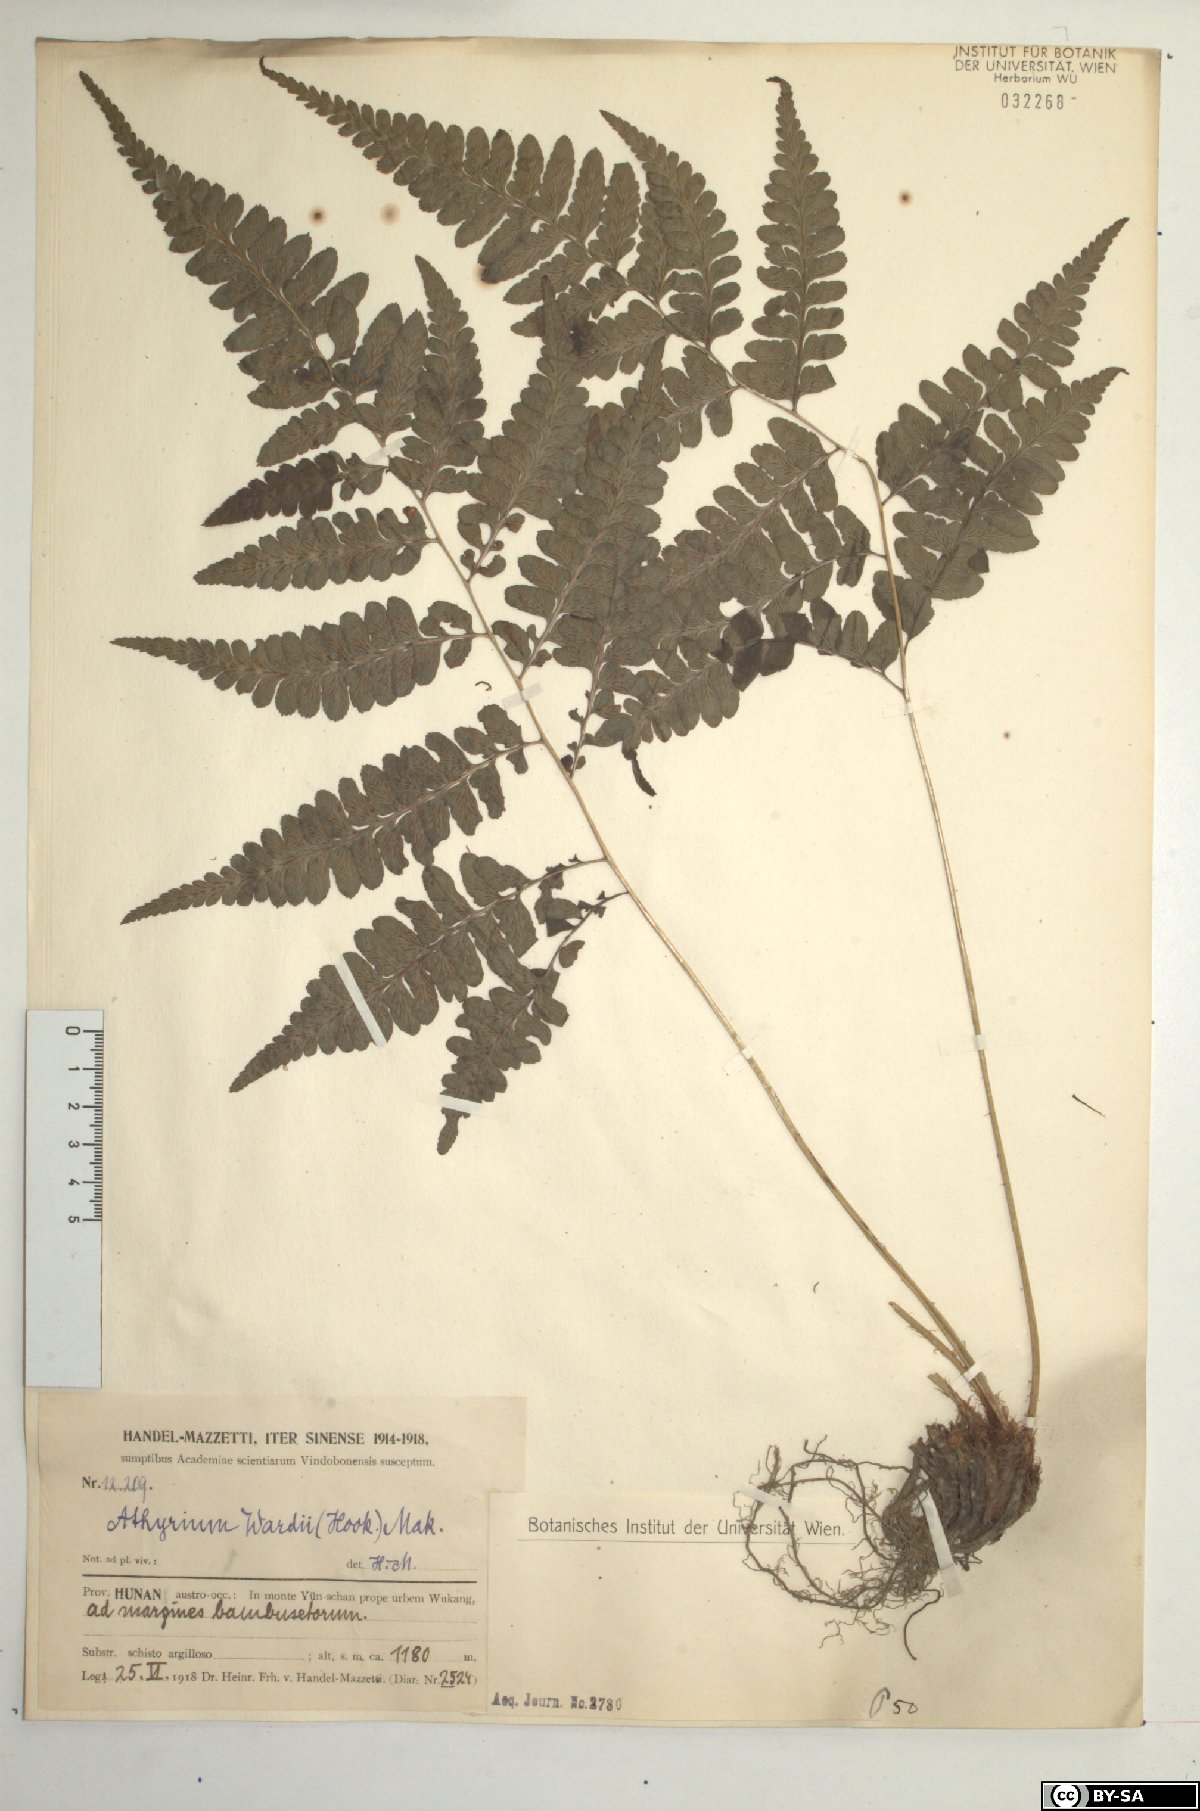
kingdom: Plantae
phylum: Tracheophyta
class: Polypodiopsida
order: Polypodiales
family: Athyriaceae
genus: Athyrium
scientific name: Athyrium wardii
